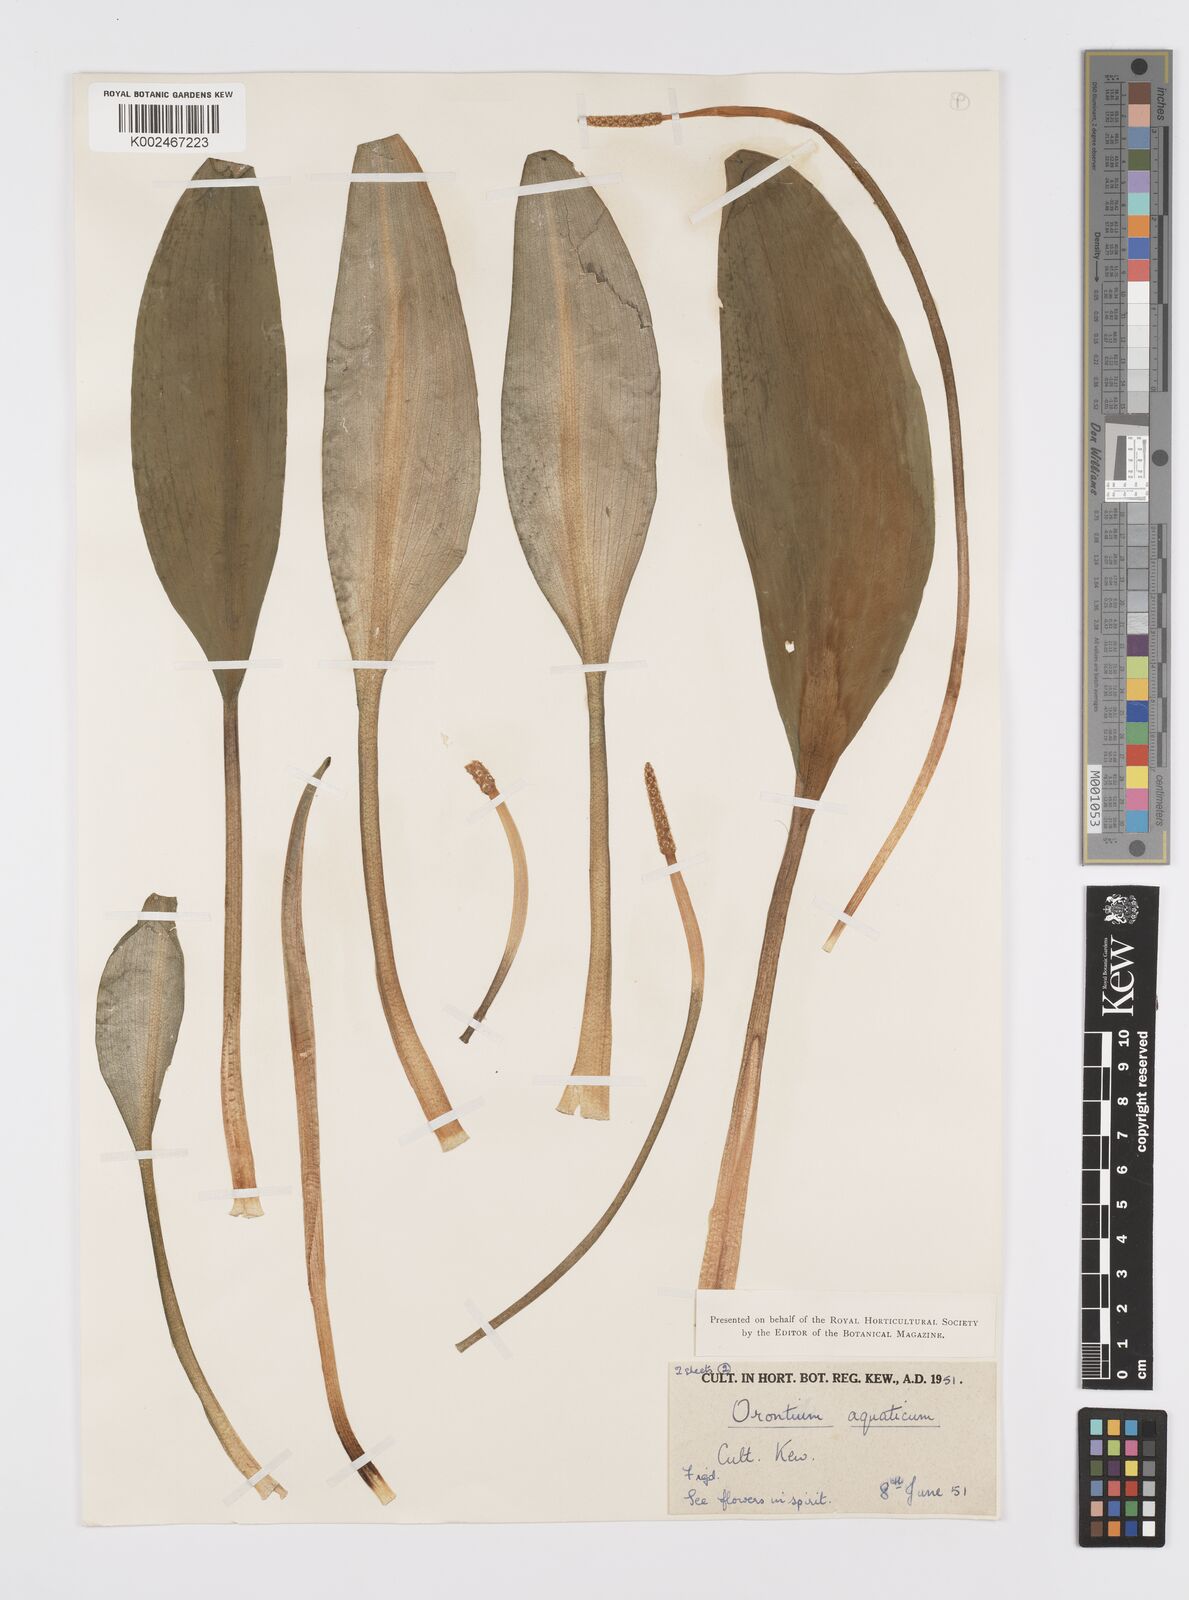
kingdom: Plantae
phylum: Tracheophyta
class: Liliopsida
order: Alismatales
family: Araceae
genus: Orontium
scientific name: Orontium aquaticum
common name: Golden-club
